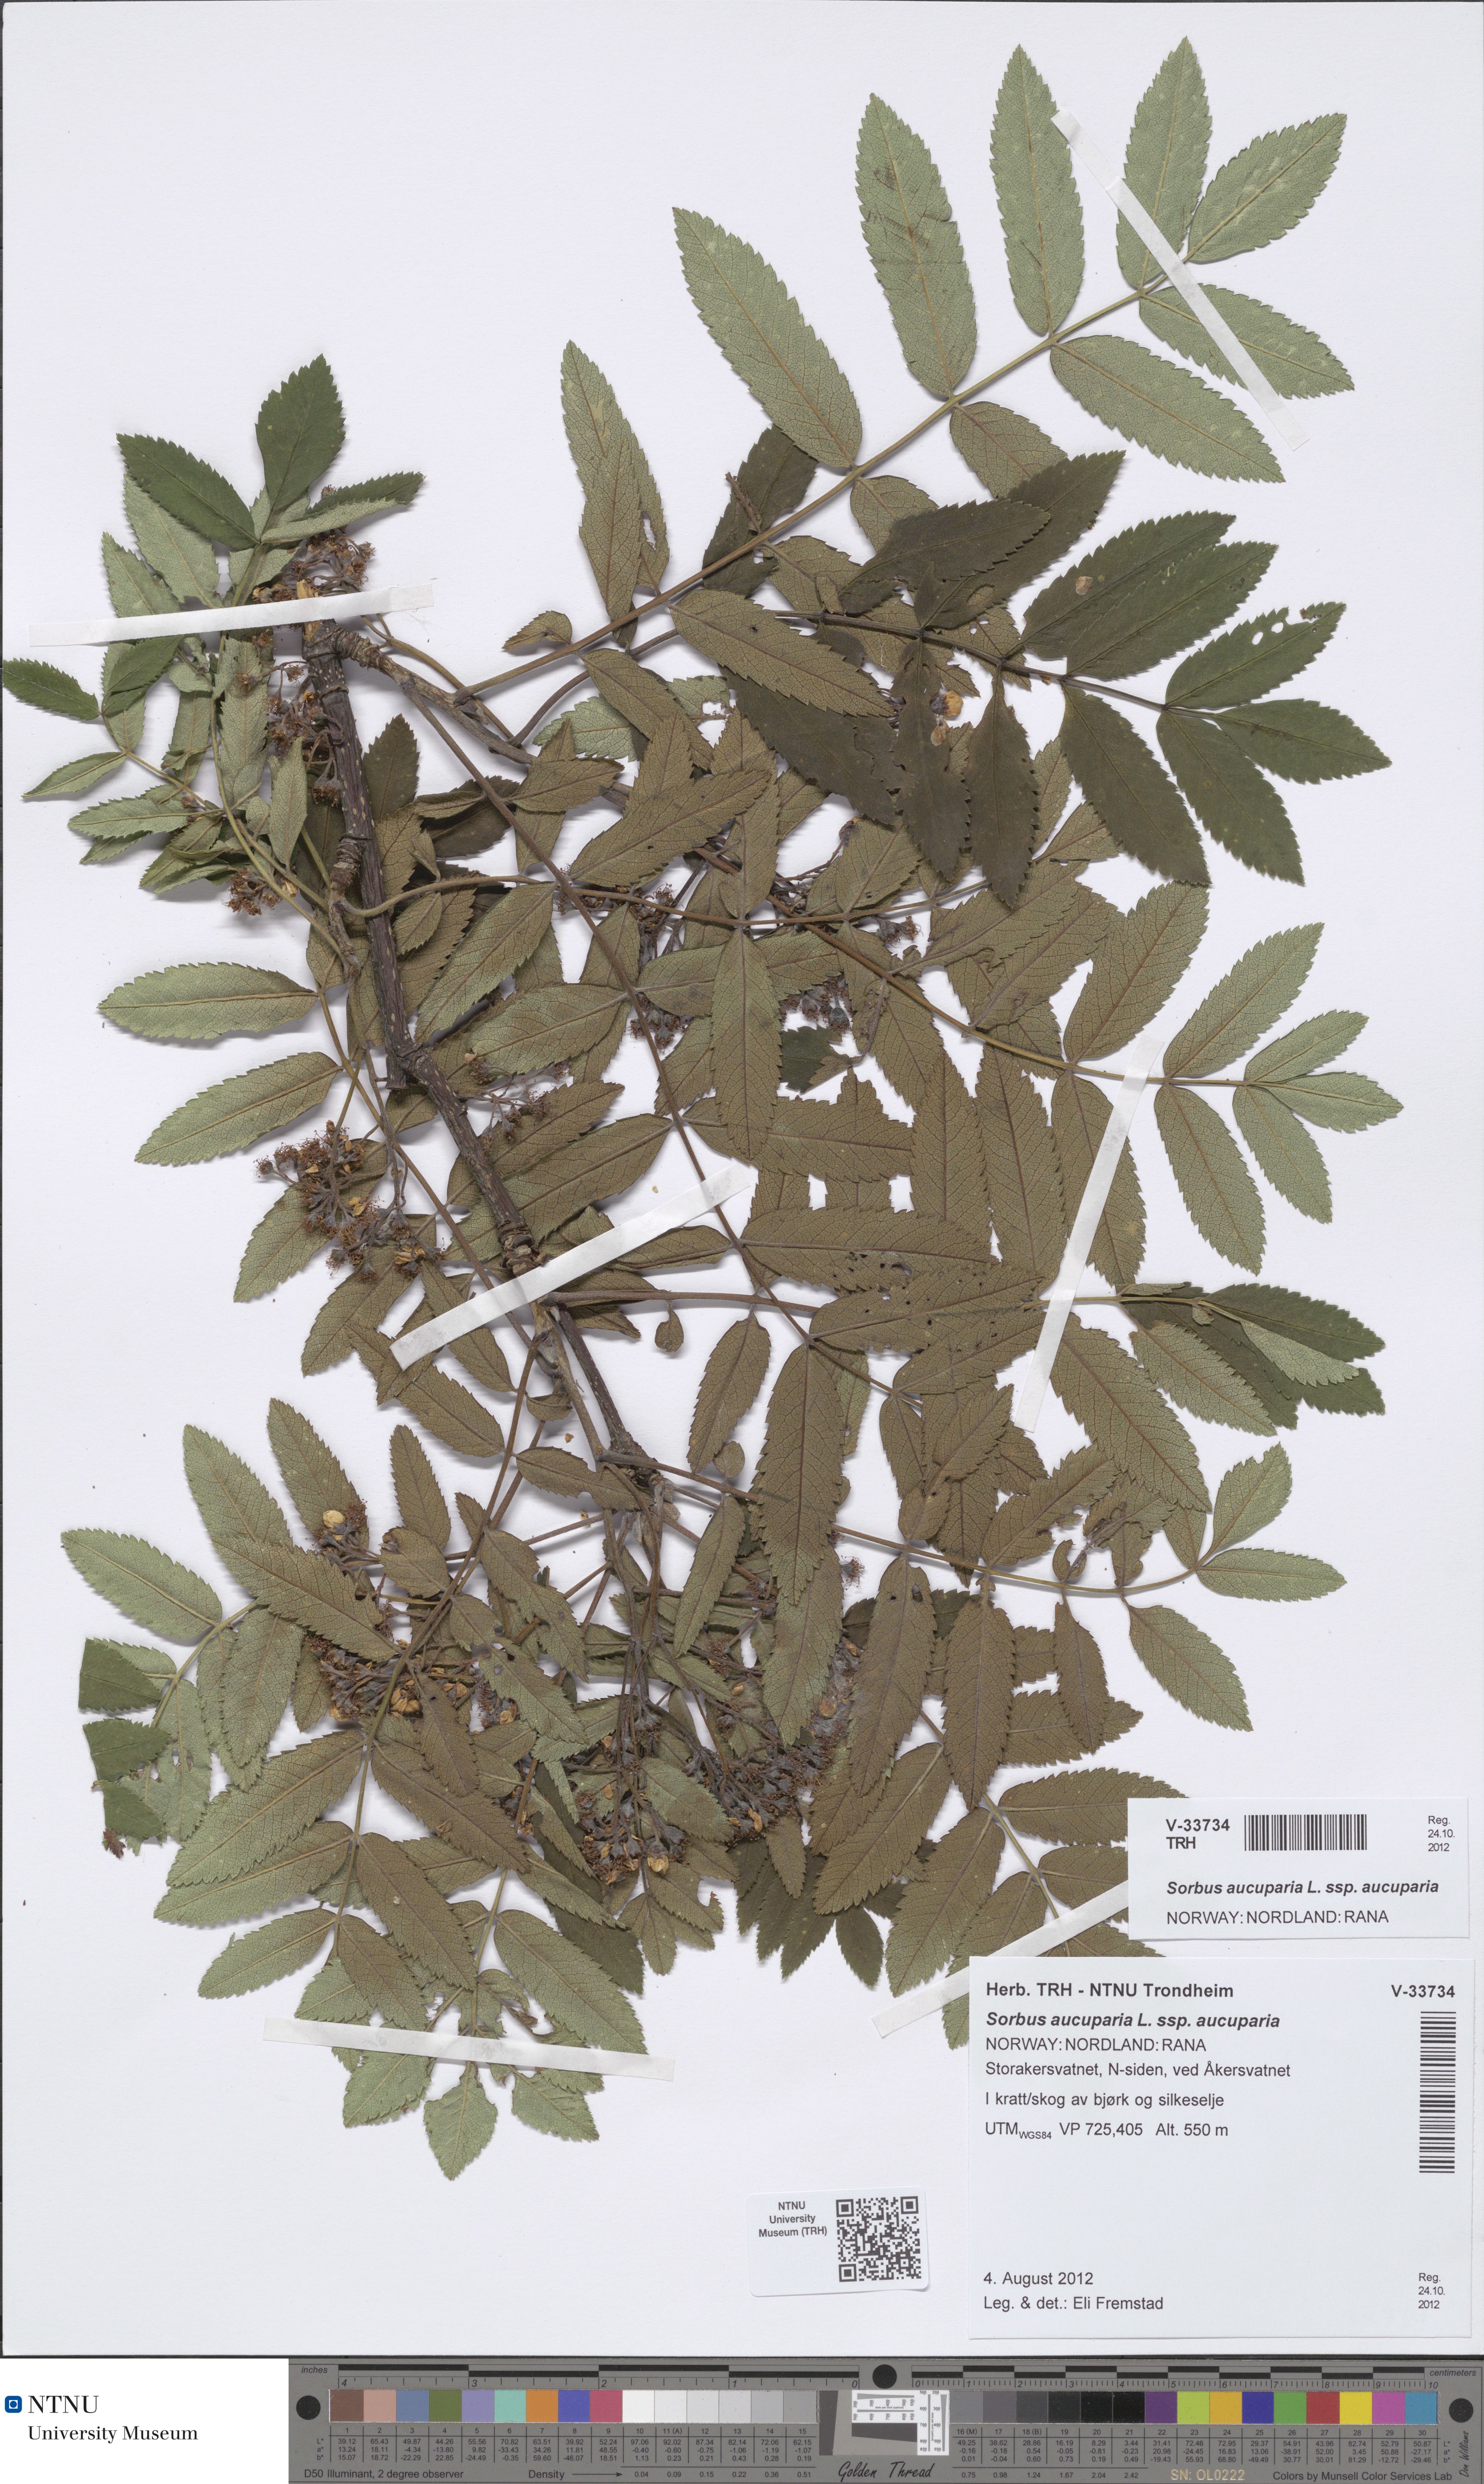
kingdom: Plantae
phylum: Tracheophyta
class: Magnoliopsida
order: Rosales
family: Rosaceae
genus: Sorbus
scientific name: Sorbus aucuparia
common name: Rowan
